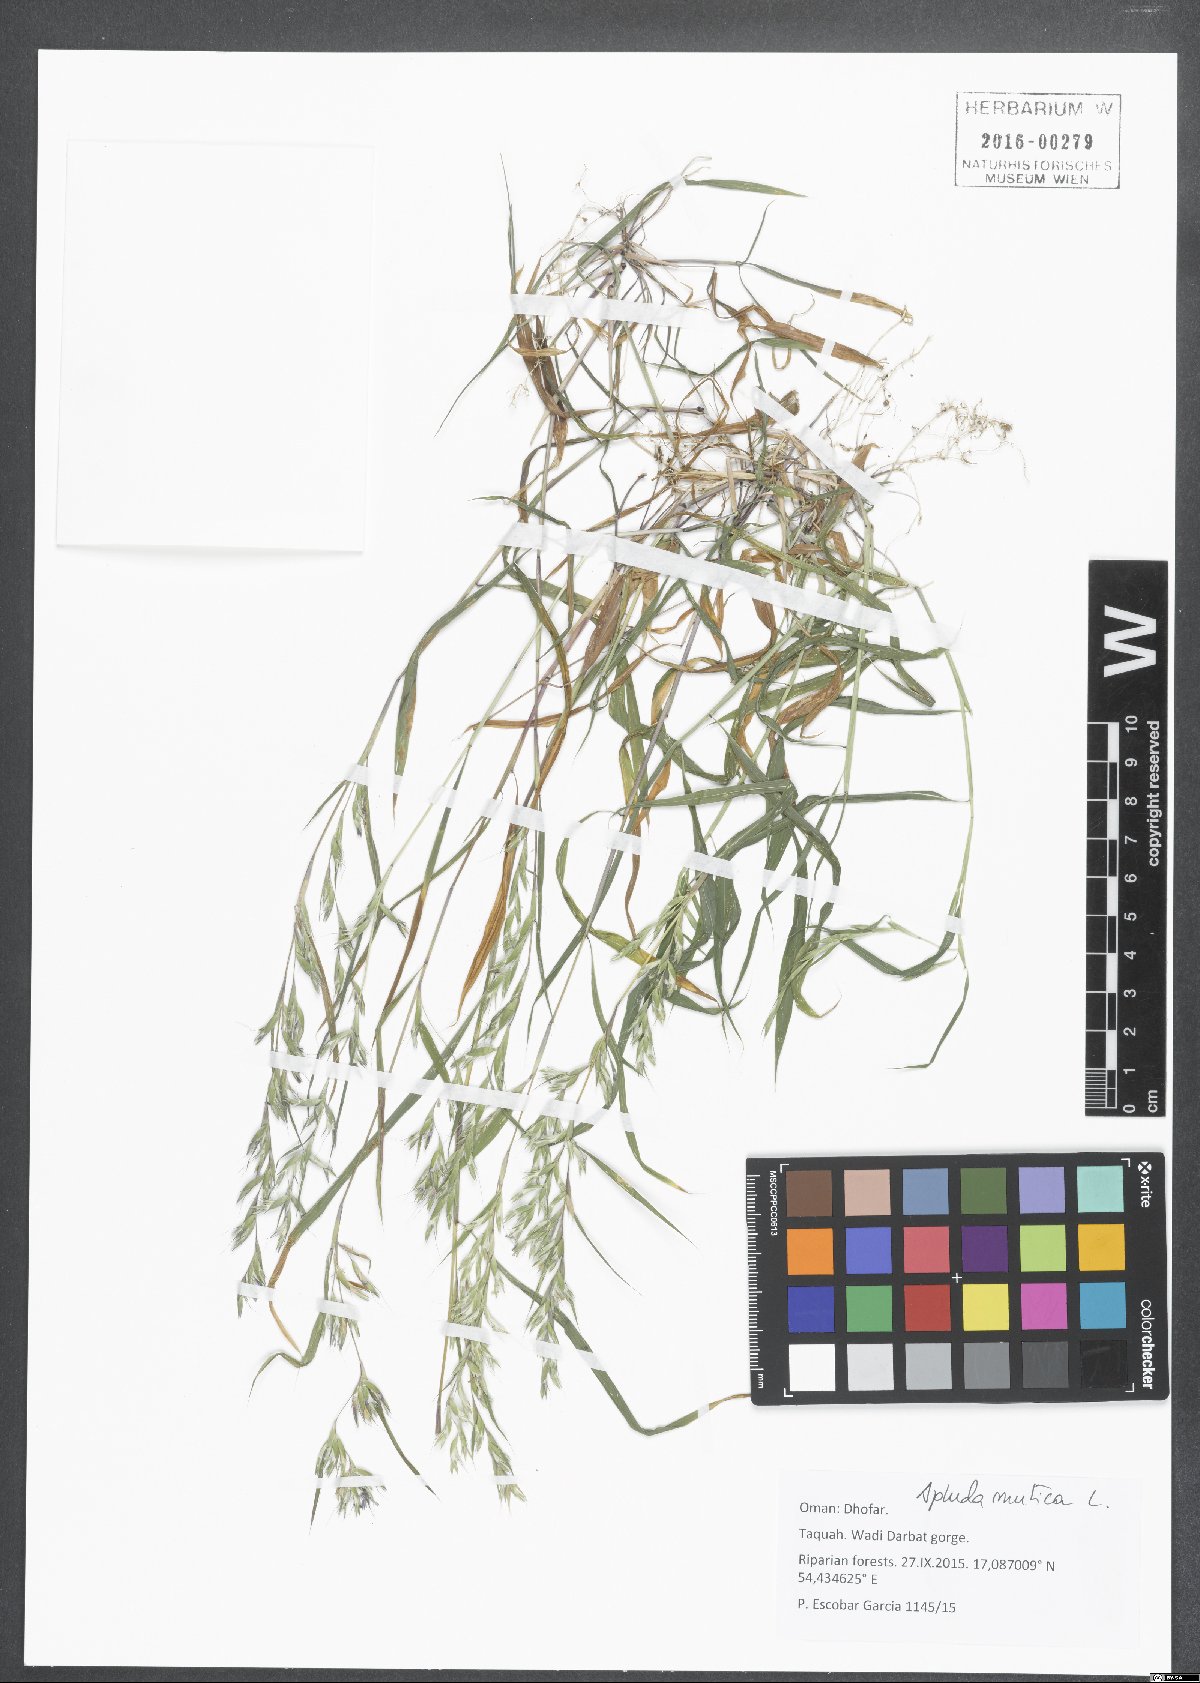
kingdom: Plantae
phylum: Tracheophyta
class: Liliopsida
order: Poales
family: Poaceae
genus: Apluda
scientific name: Apluda mutica
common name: Mauritian grass
